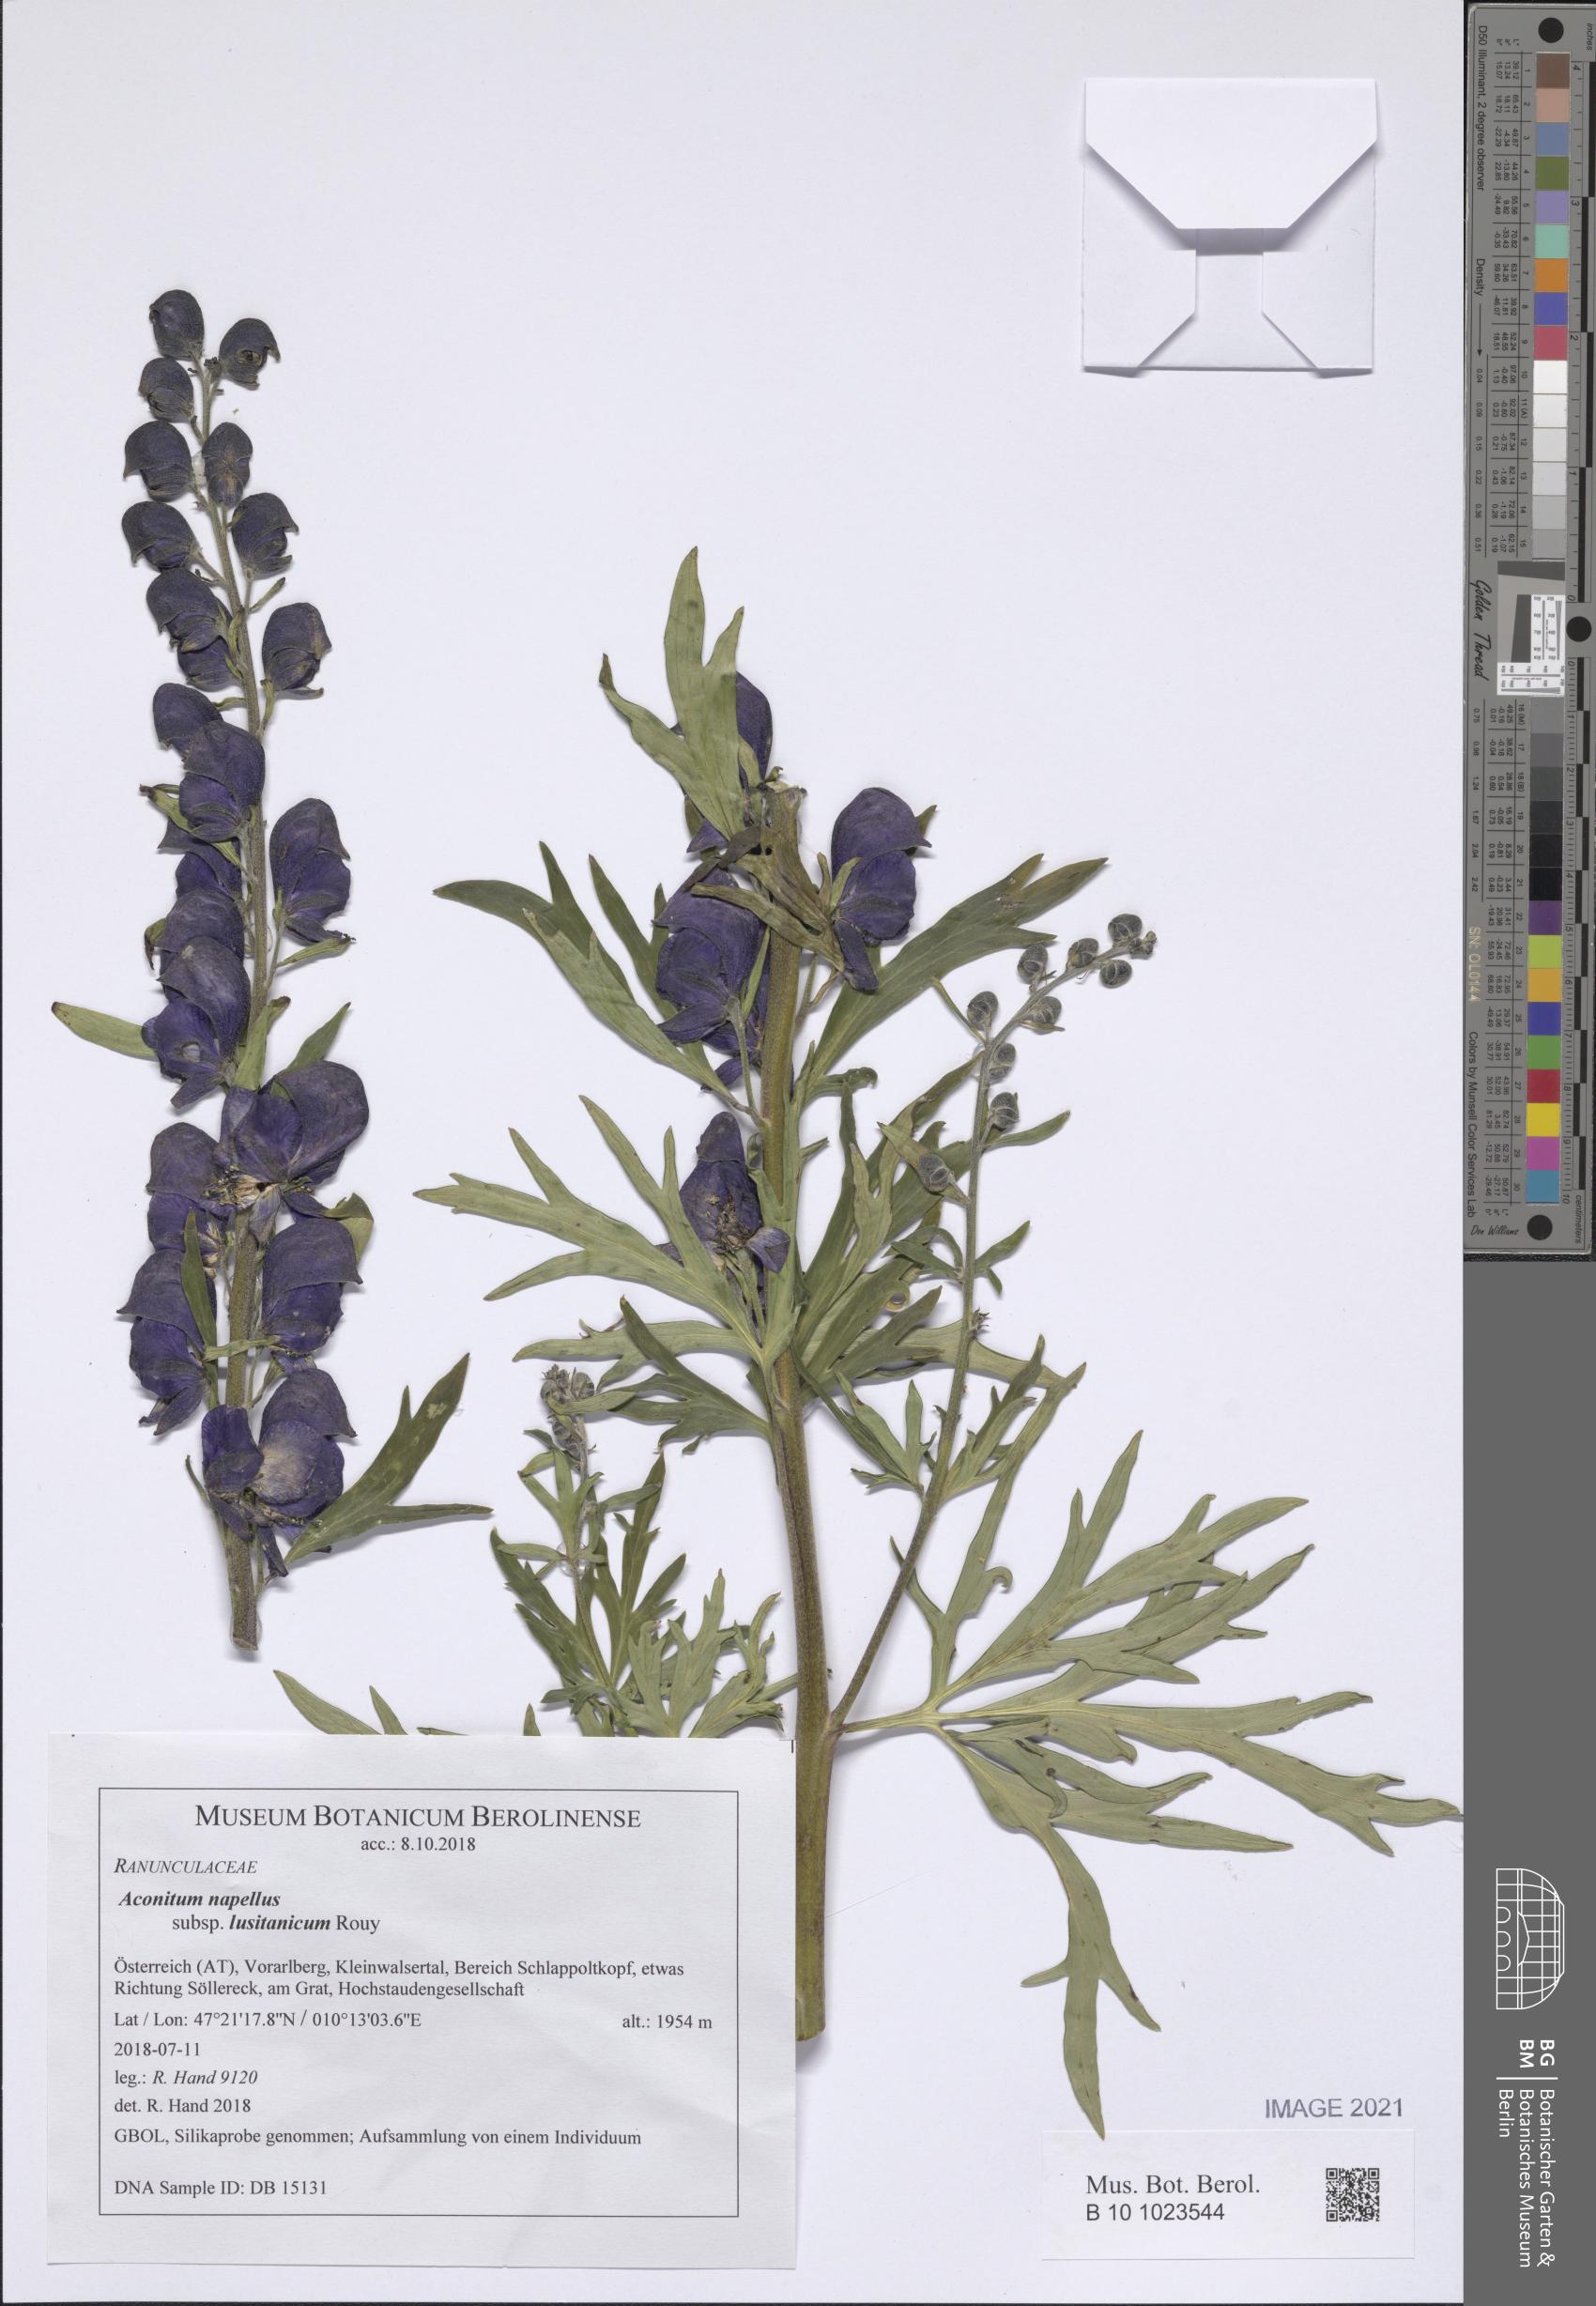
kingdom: Plantae
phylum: Tracheophyta
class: Magnoliopsida
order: Ranunculales
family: Ranunculaceae
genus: Aconitum
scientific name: Aconitum napellus
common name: Garden monkshood
